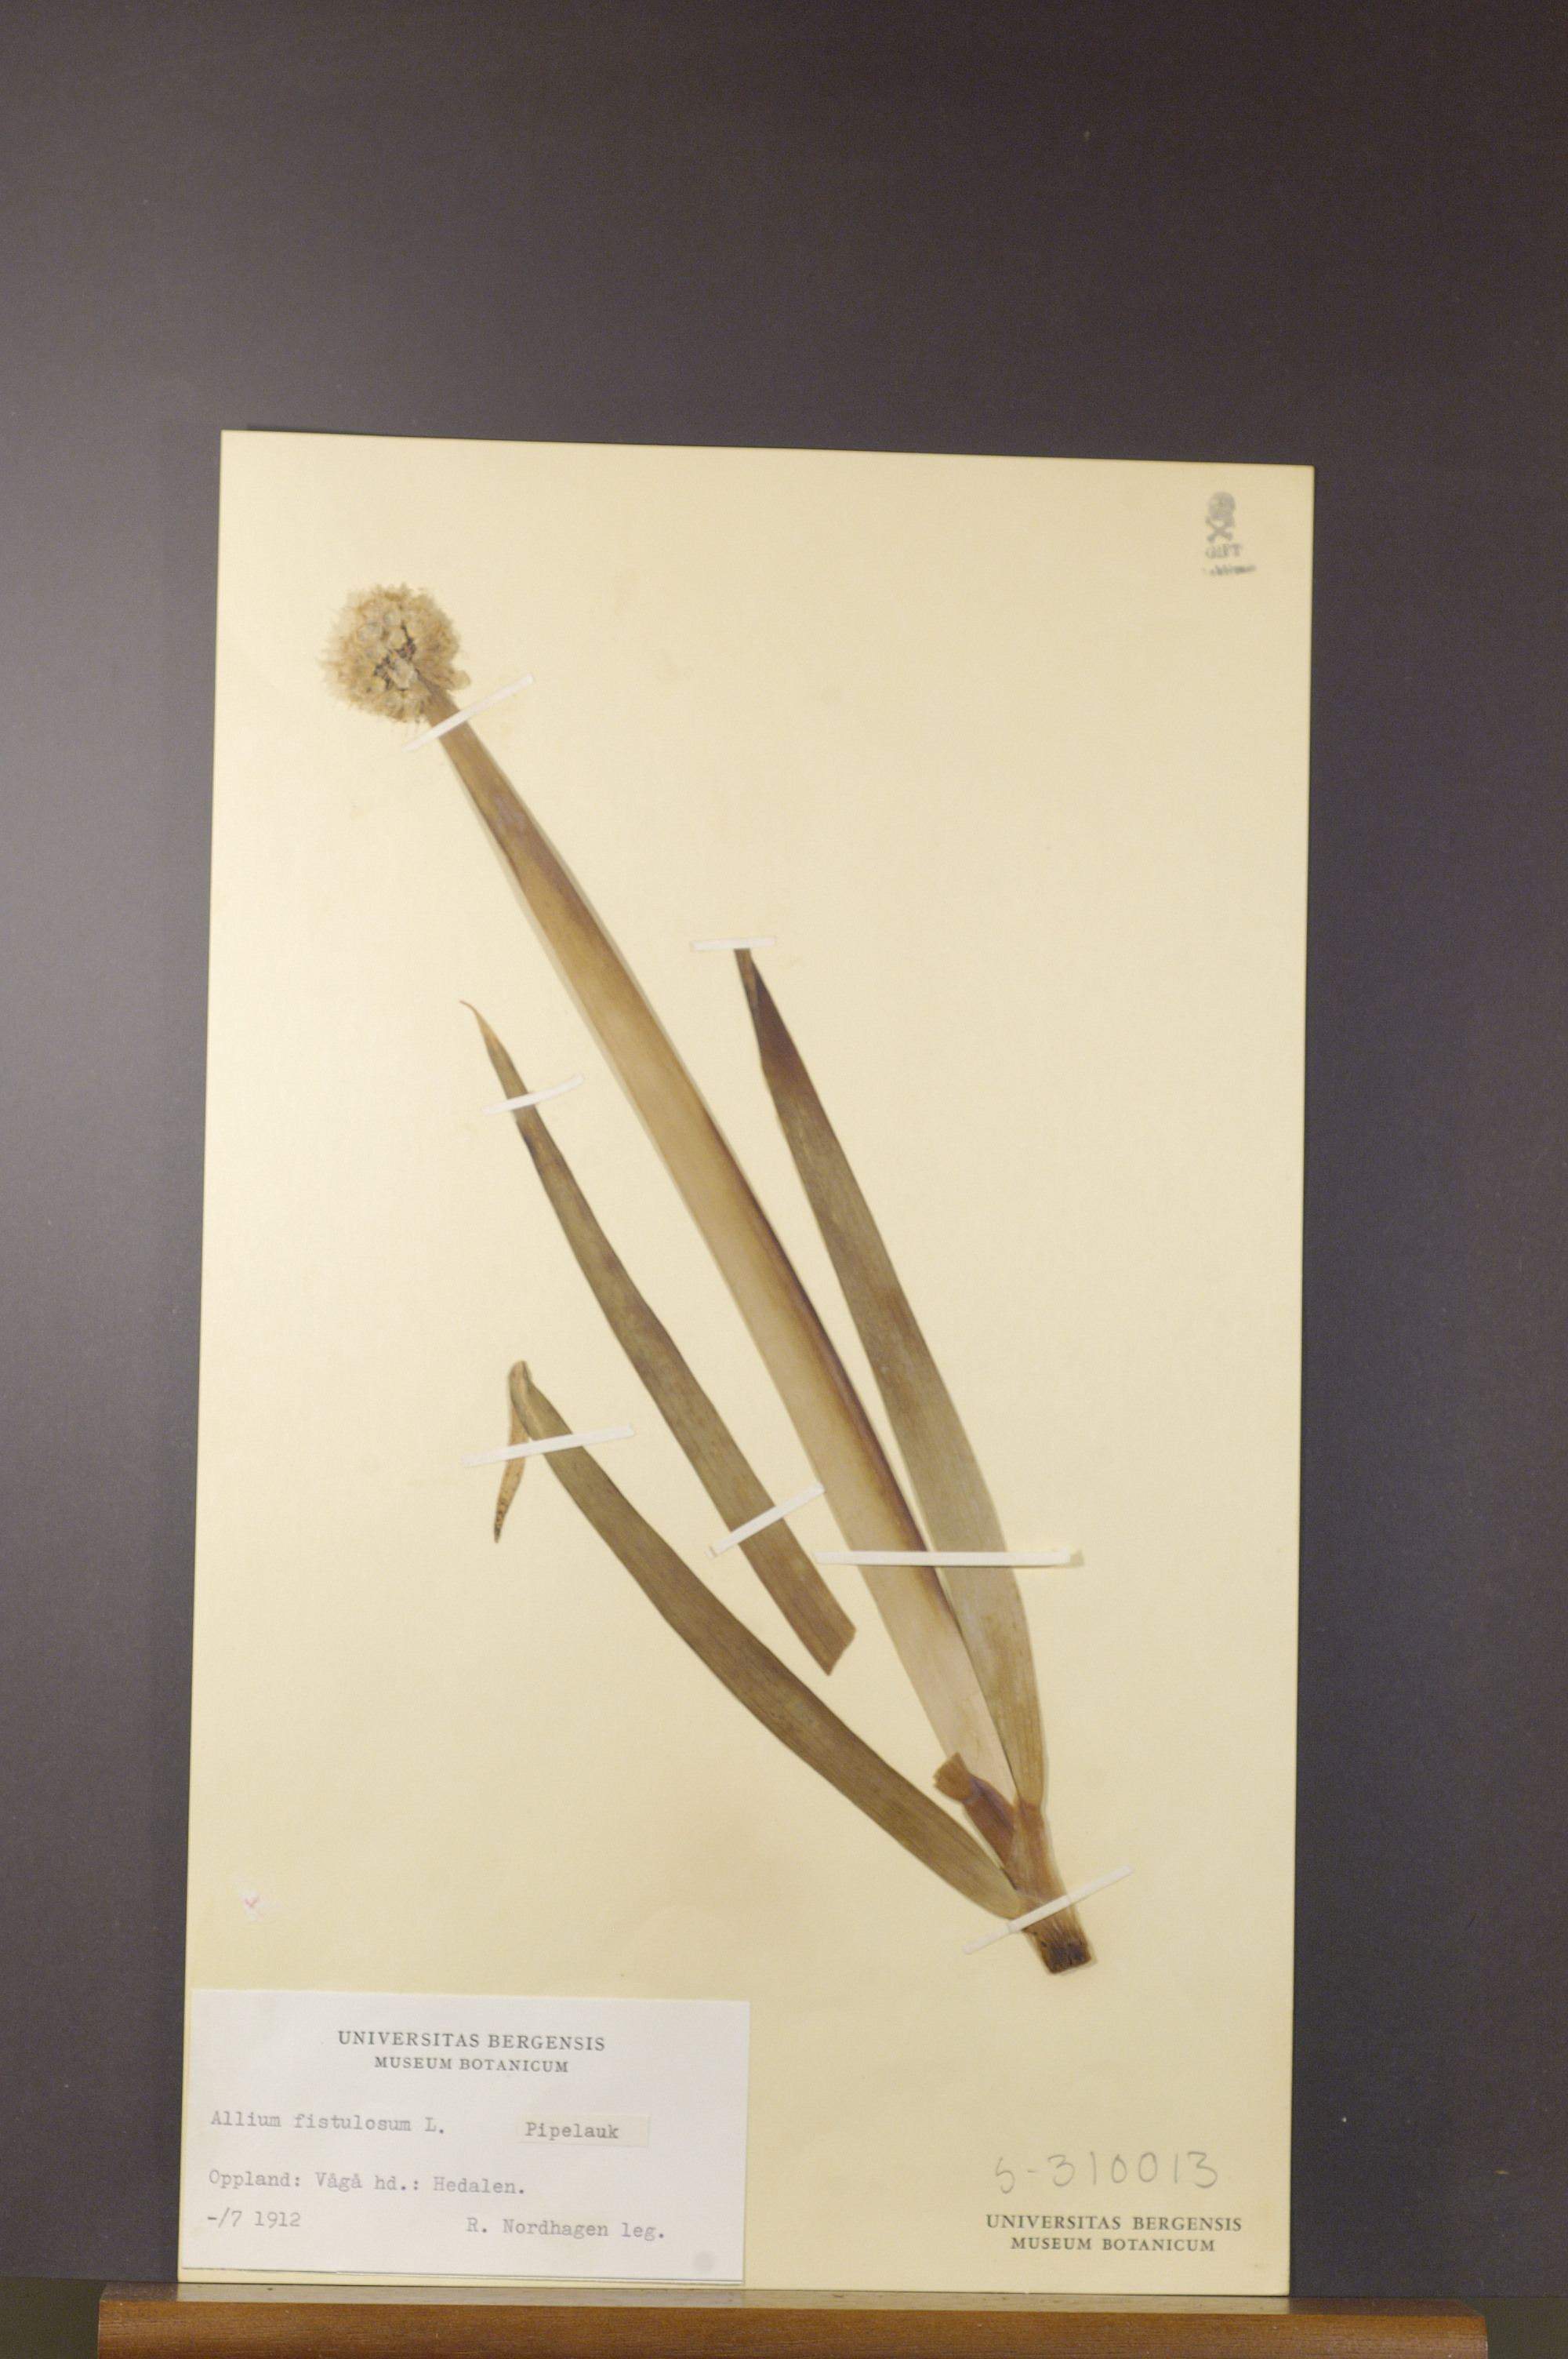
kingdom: Plantae
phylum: Tracheophyta
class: Liliopsida
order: Asparagales
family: Amaryllidaceae
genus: Allium
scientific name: Allium fistulosum
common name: Welsh onion
